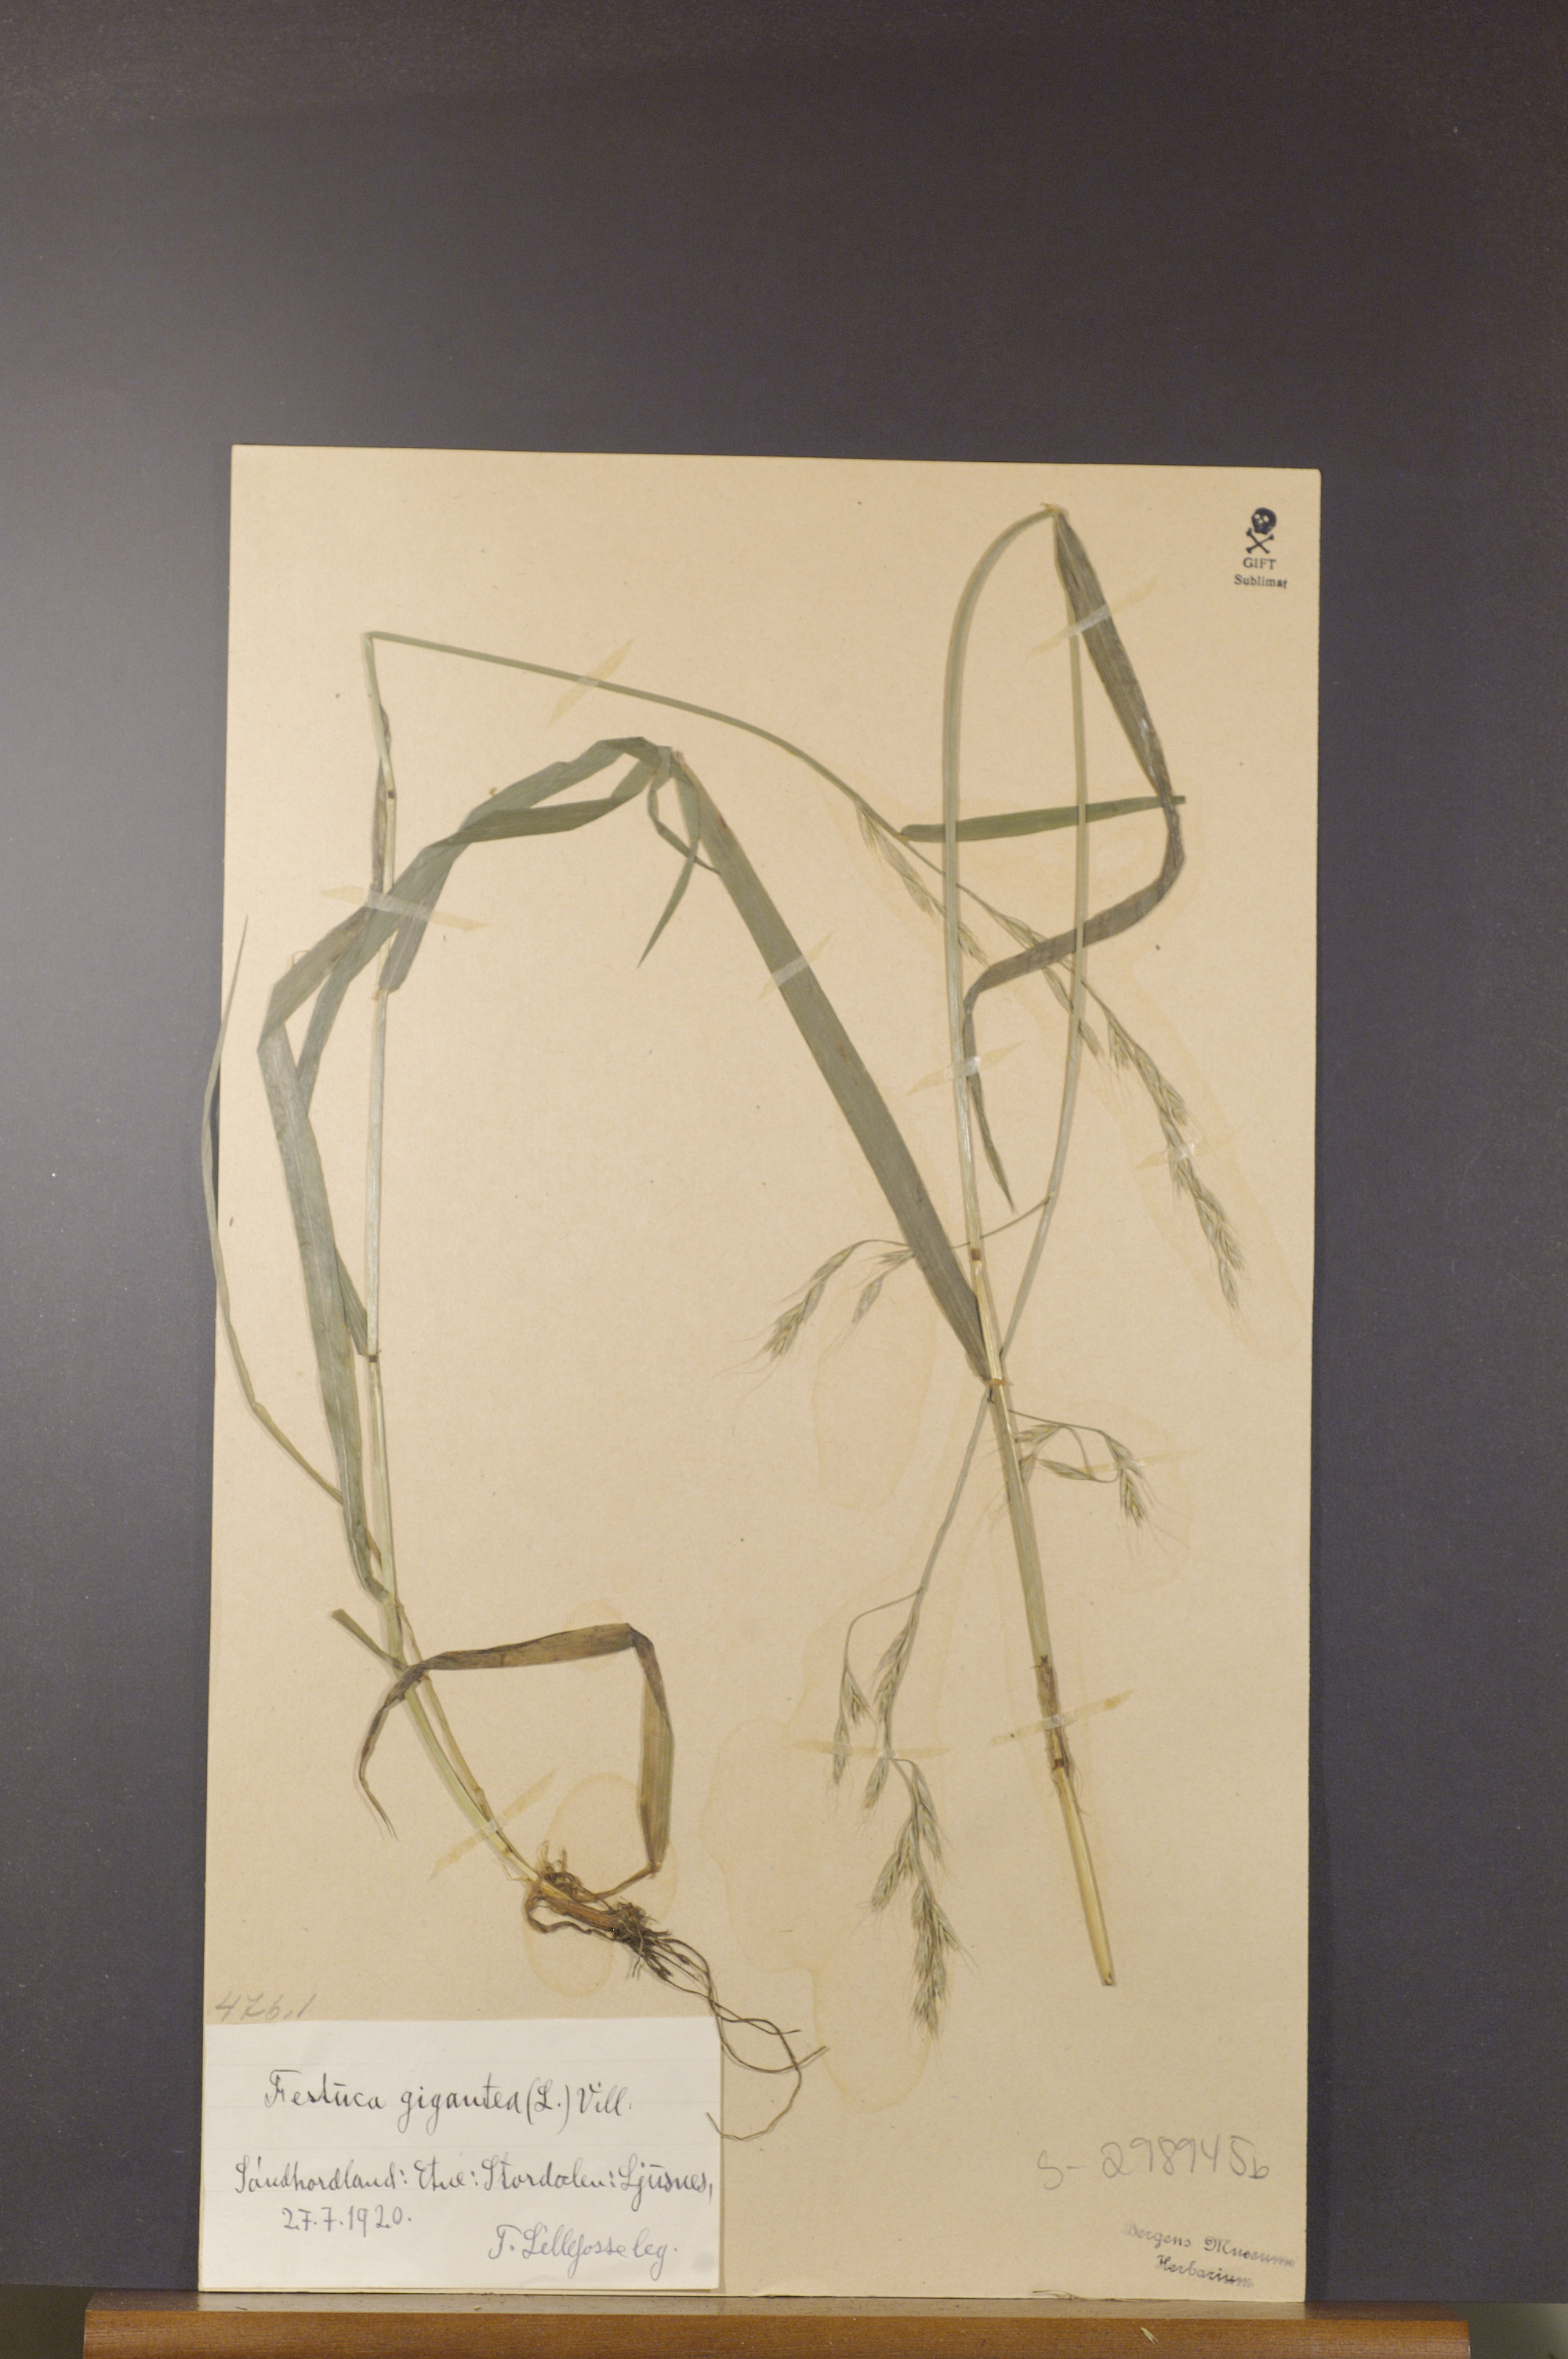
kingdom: Plantae
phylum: Tracheophyta
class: Liliopsida
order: Poales
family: Poaceae
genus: Lolium
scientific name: Lolium giganteum
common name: Giant fescue
